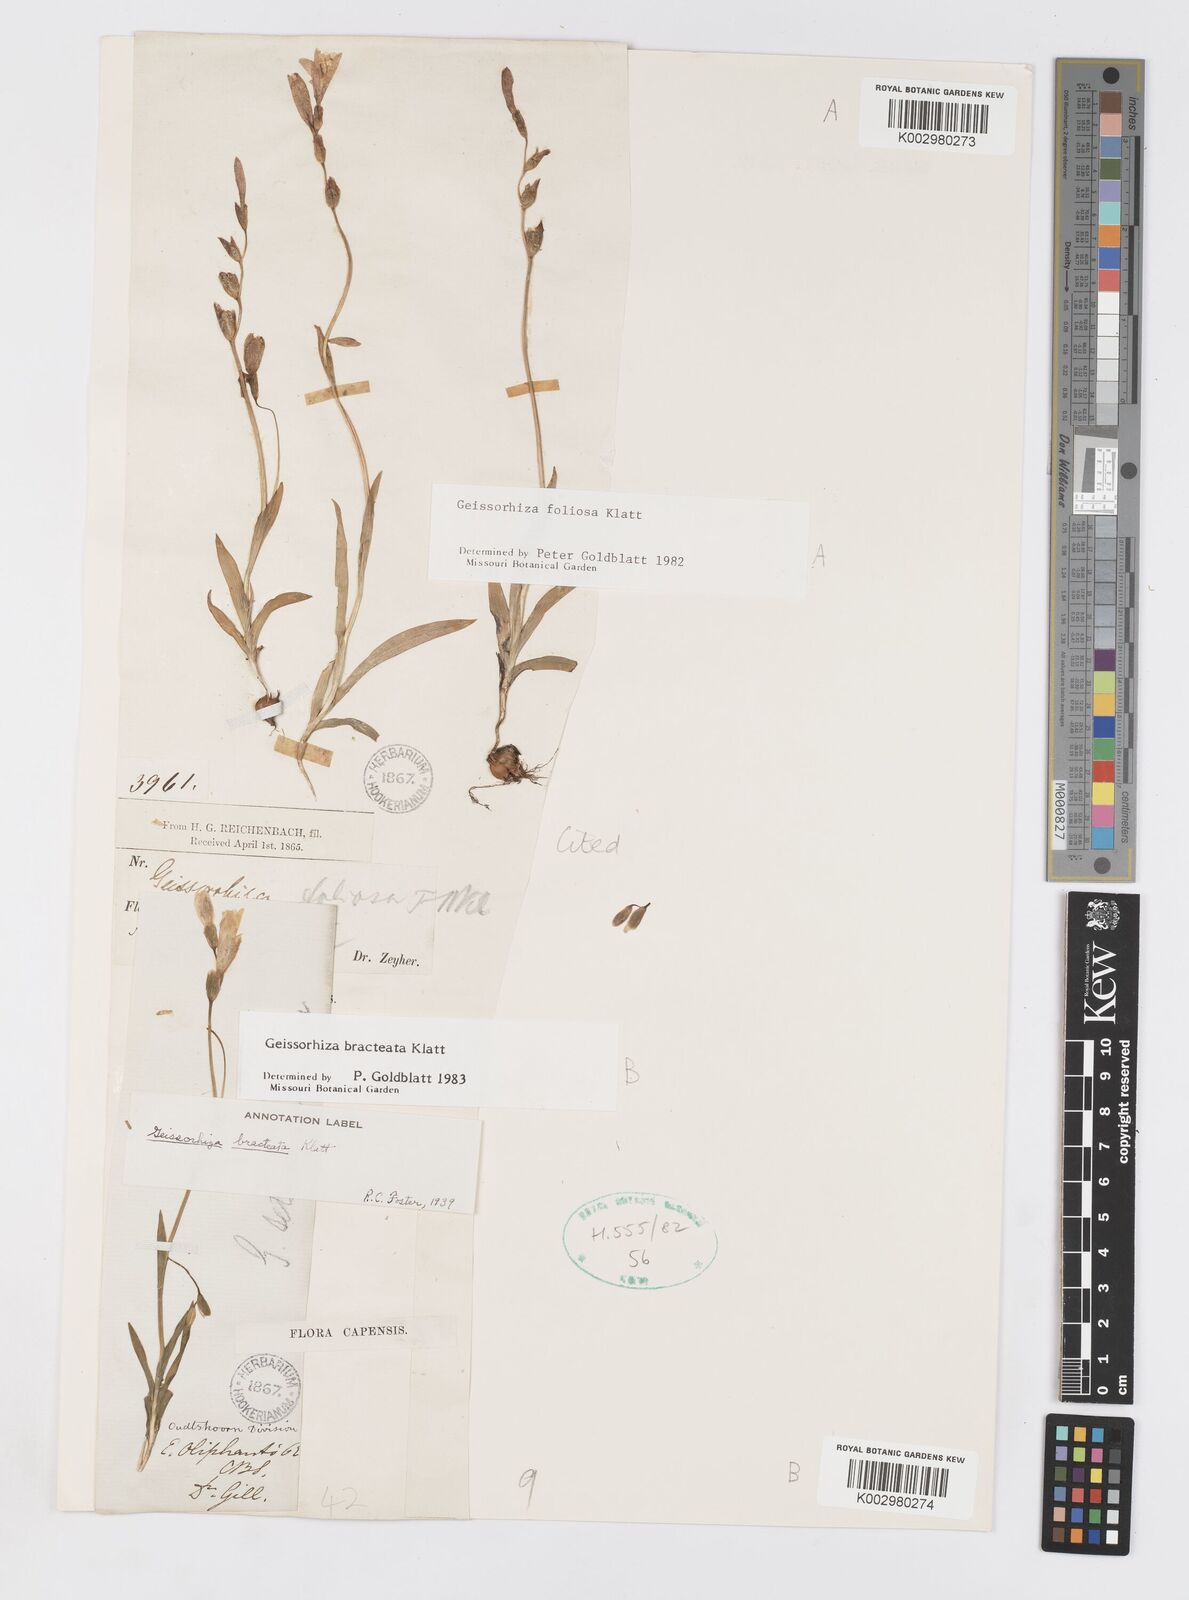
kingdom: Plantae
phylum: Tracheophyta
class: Liliopsida
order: Asparagales
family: Iridaceae
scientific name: Iridaceae
